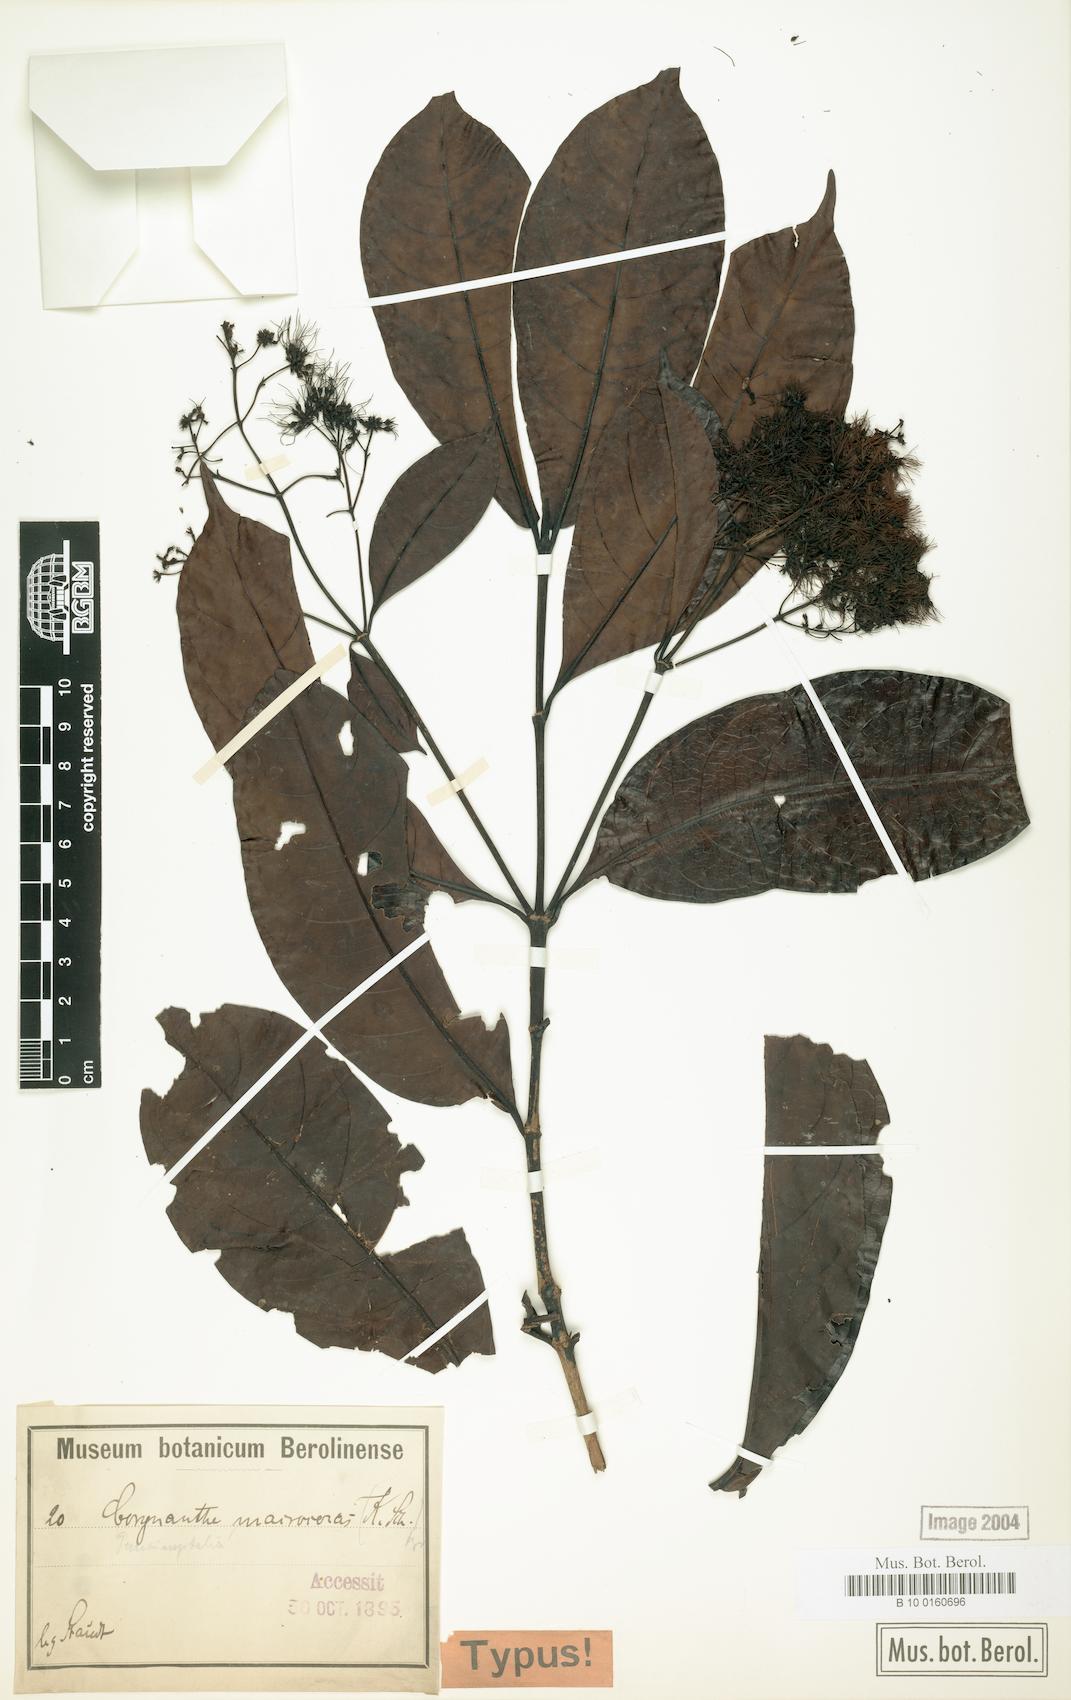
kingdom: Plantae
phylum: Tracheophyta
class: Magnoliopsida
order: Gentianales
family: Rubiaceae
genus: Corynanthe
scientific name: Corynanthe macroceras
